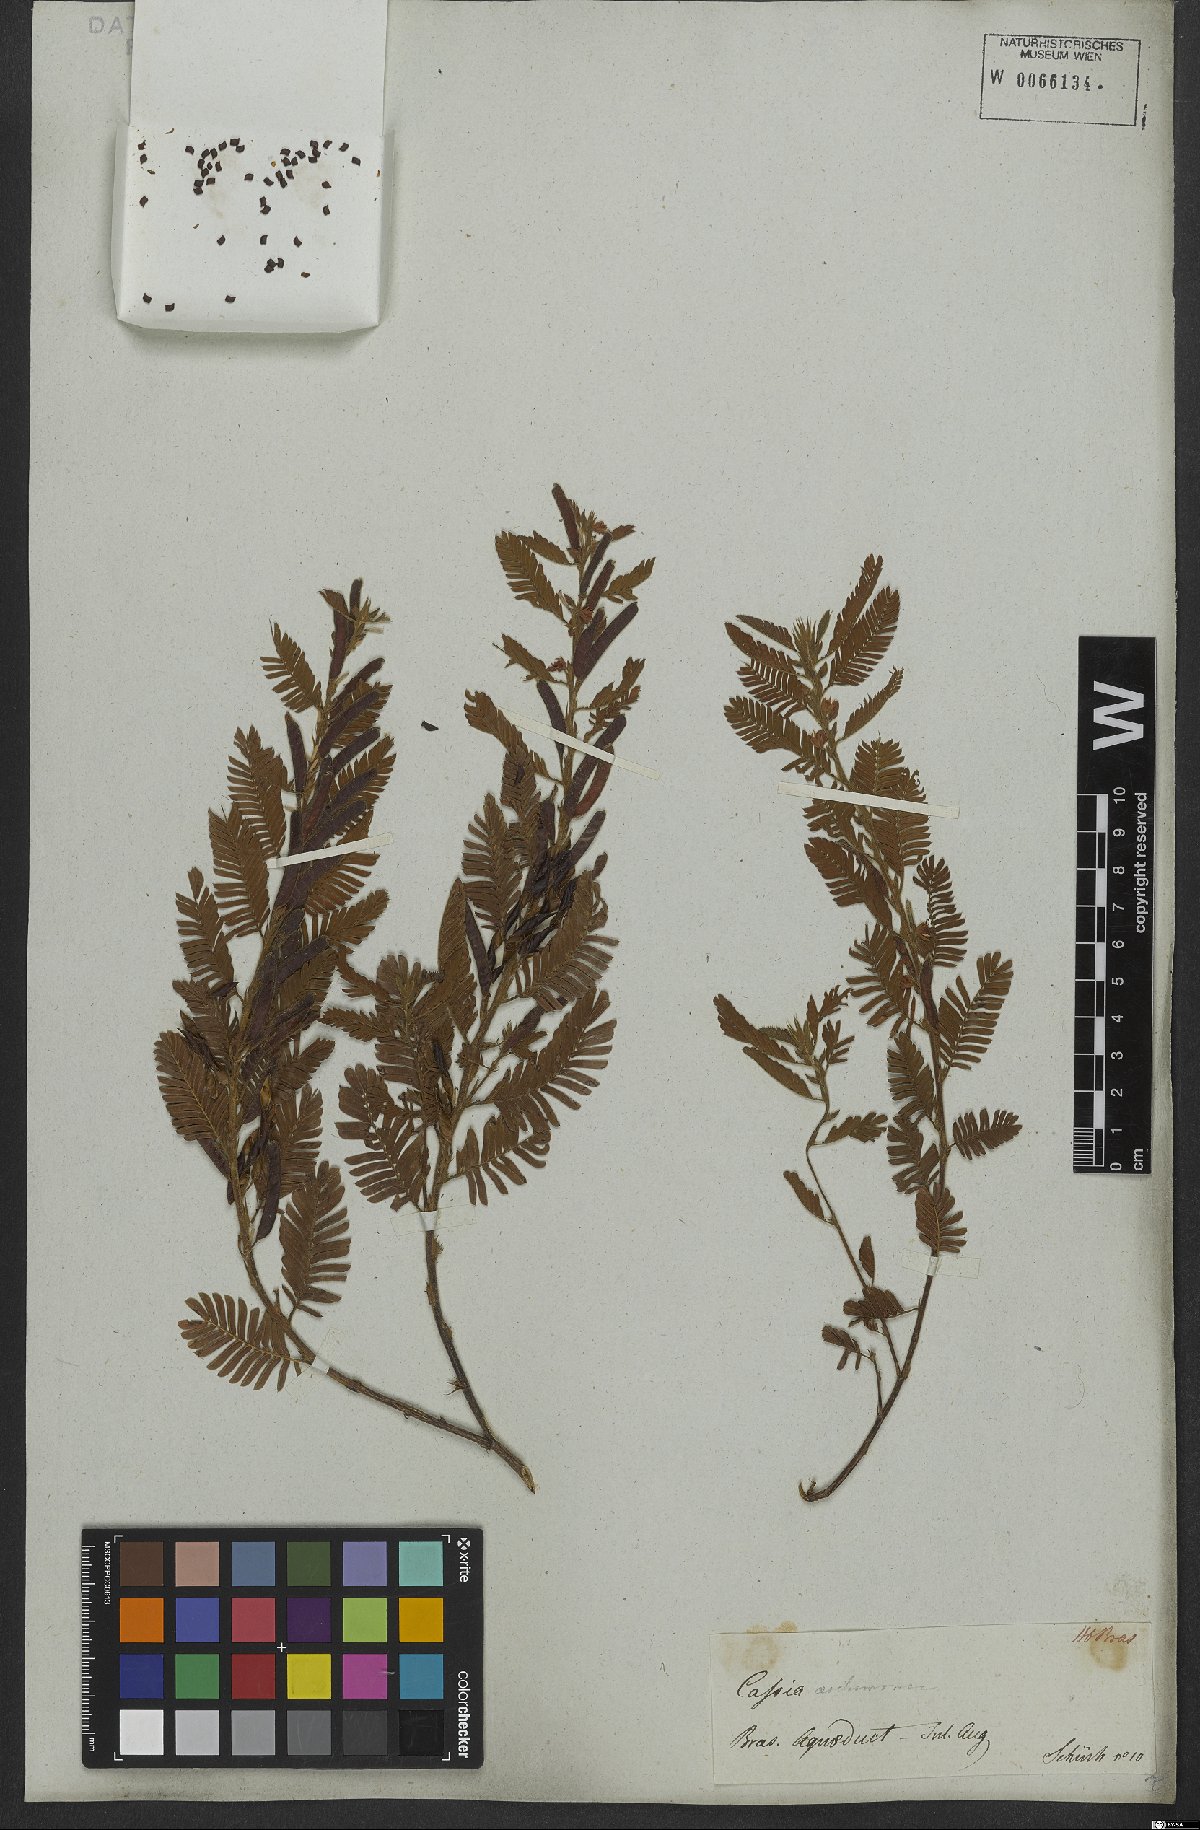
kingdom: Plantae
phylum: Tracheophyta
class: Magnoliopsida
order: Fabales
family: Fabaceae
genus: Chamaecrista
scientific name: Chamaecrista nictitans
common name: Sensitive cassia
